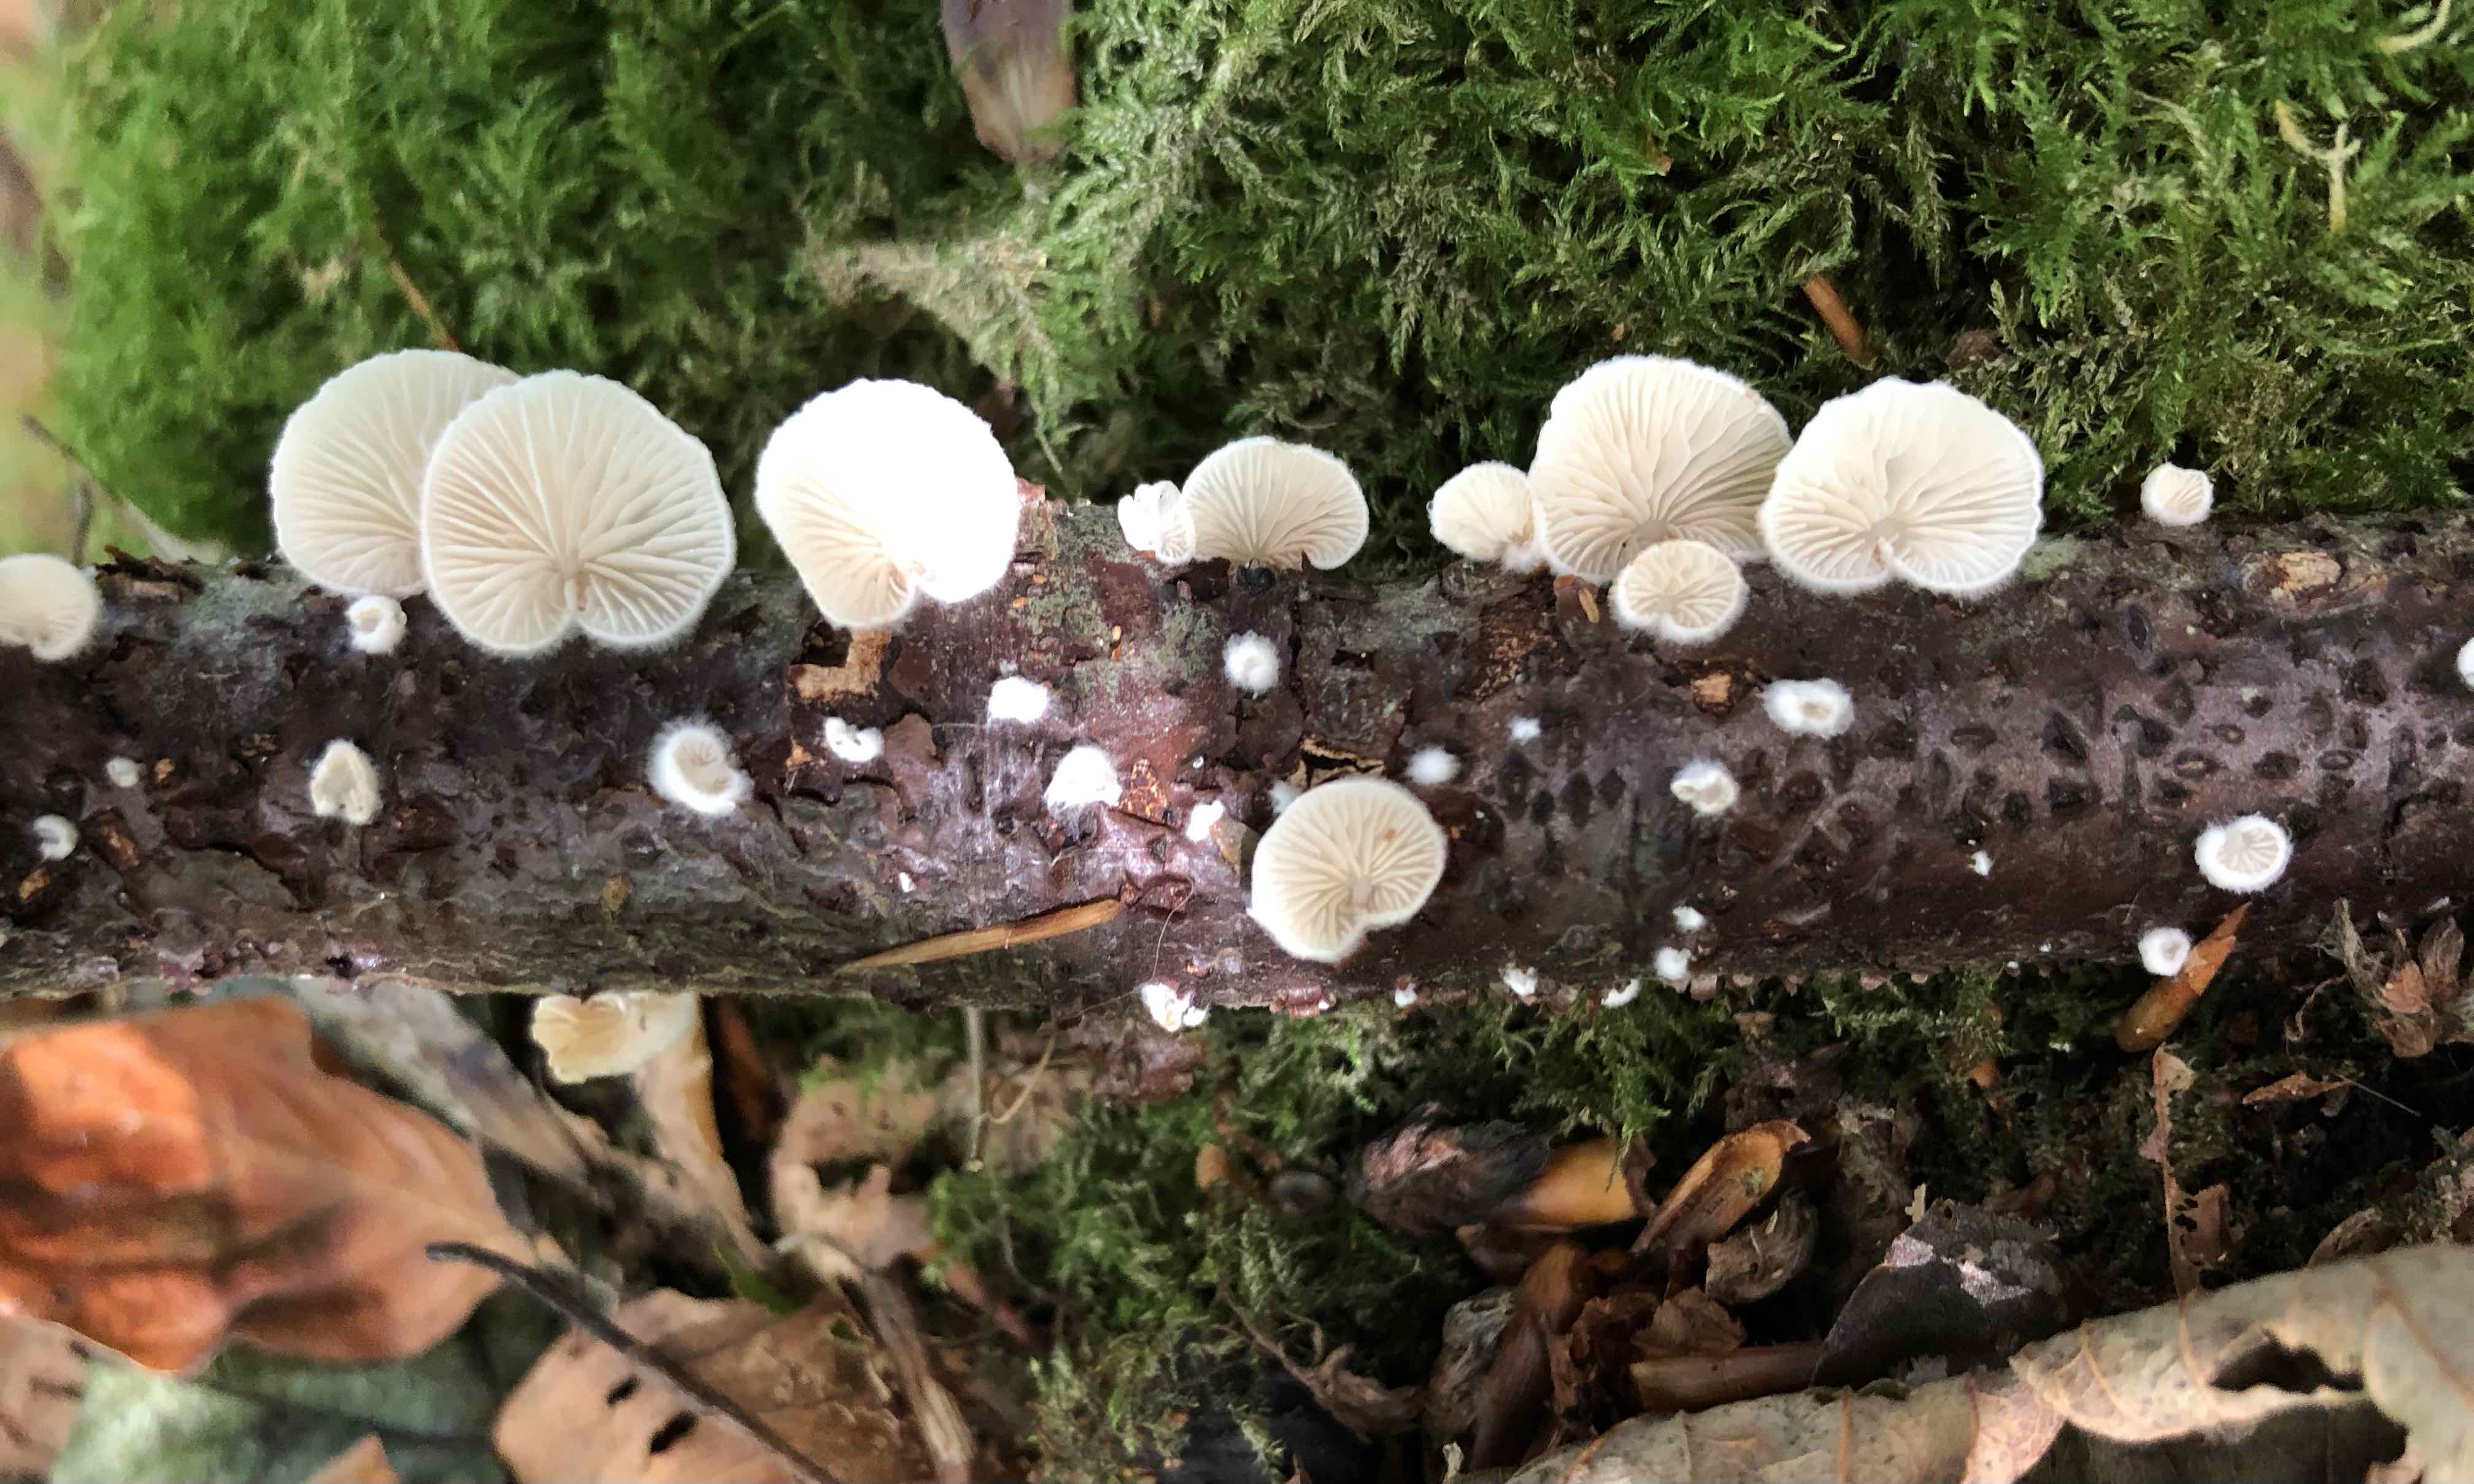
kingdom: Fungi
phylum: Basidiomycota
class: Agaricomycetes
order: Agaricales
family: Crepidotaceae
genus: Crepidotus
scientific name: Crepidotus
